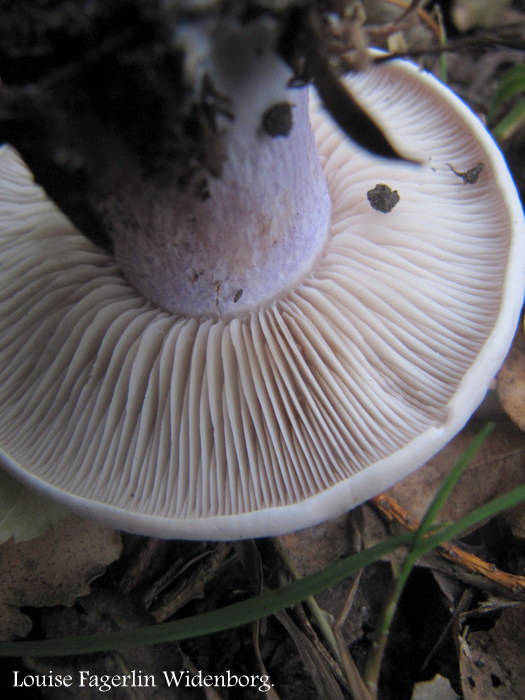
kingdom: Fungi
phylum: Basidiomycota
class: Agaricomycetes
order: Agaricales
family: Tricholomataceae
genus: Lepista
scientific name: Lepista personata
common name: bleg hekseringshat
